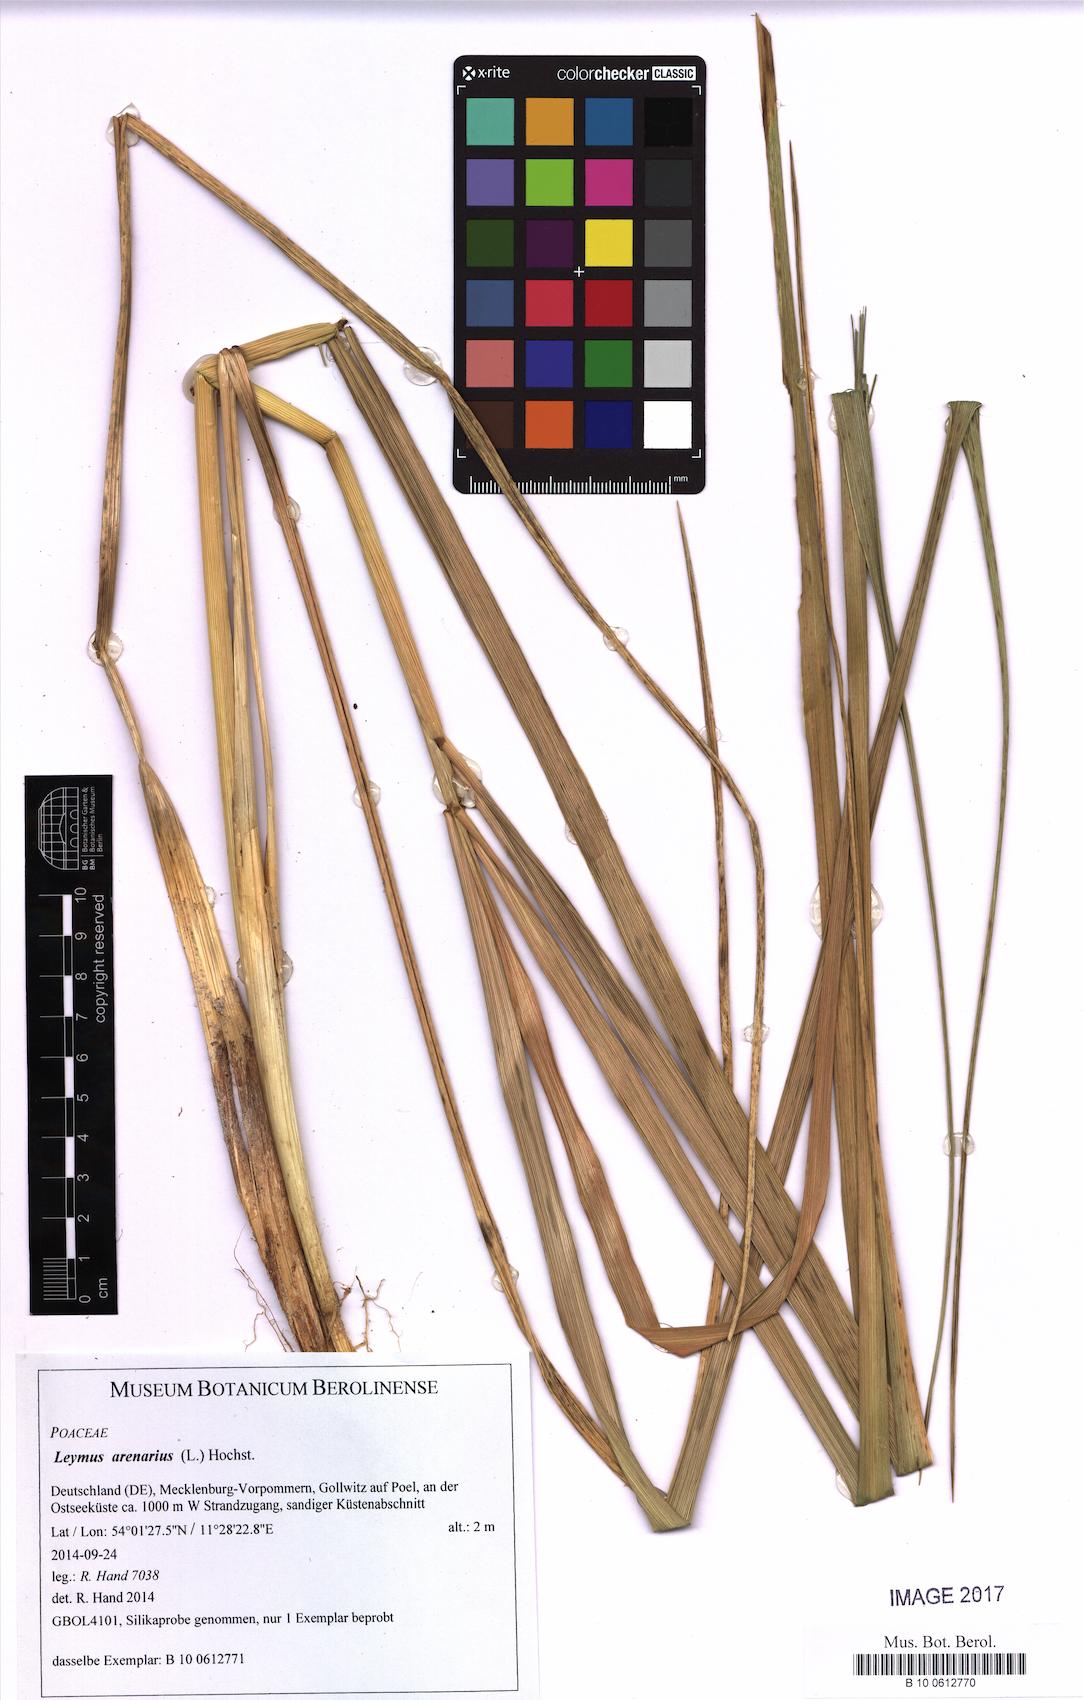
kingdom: Plantae
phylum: Tracheophyta
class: Liliopsida
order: Poales
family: Poaceae
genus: Leymus
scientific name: Leymus arenarius
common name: Lyme-grass
